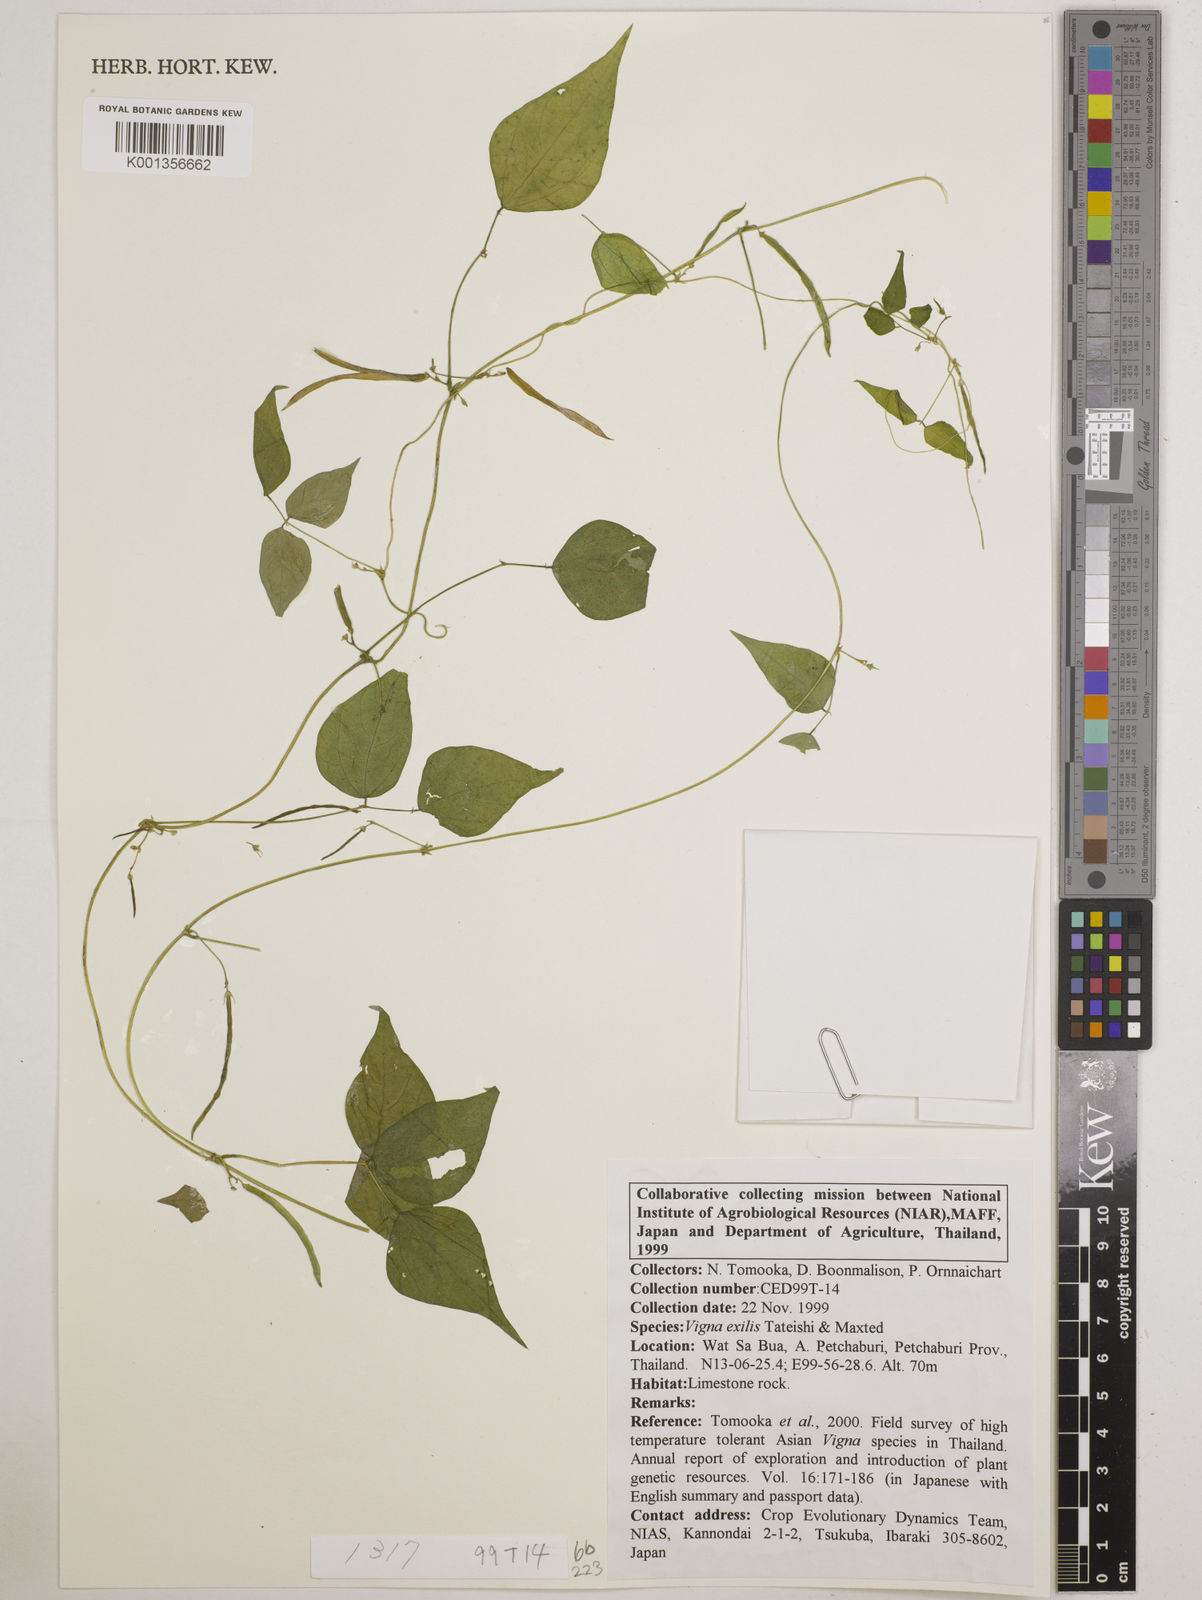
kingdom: Plantae
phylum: Tracheophyta
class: Magnoliopsida
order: Fabales
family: Fabaceae
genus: Vigna
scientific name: Vigna
